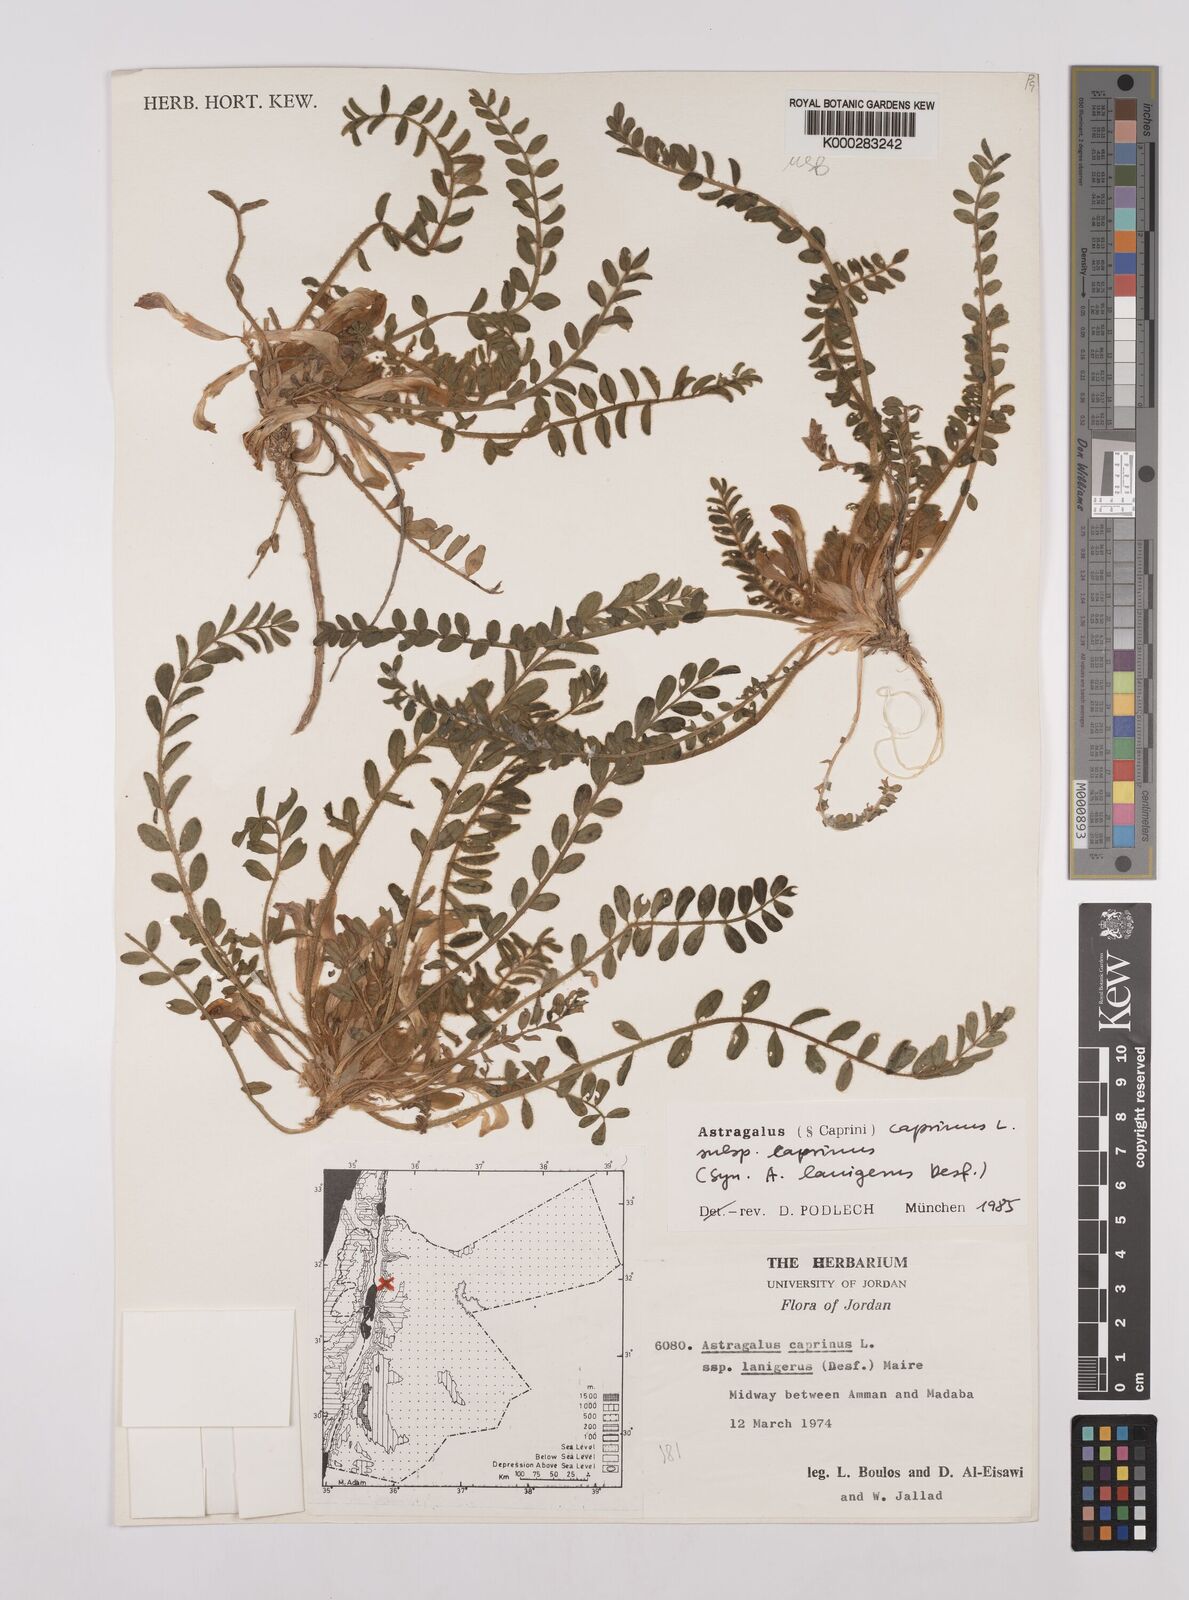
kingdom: Plantae
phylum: Tracheophyta
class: Magnoliopsida
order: Fabales
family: Fabaceae
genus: Astragalus
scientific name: Astragalus caprinus
